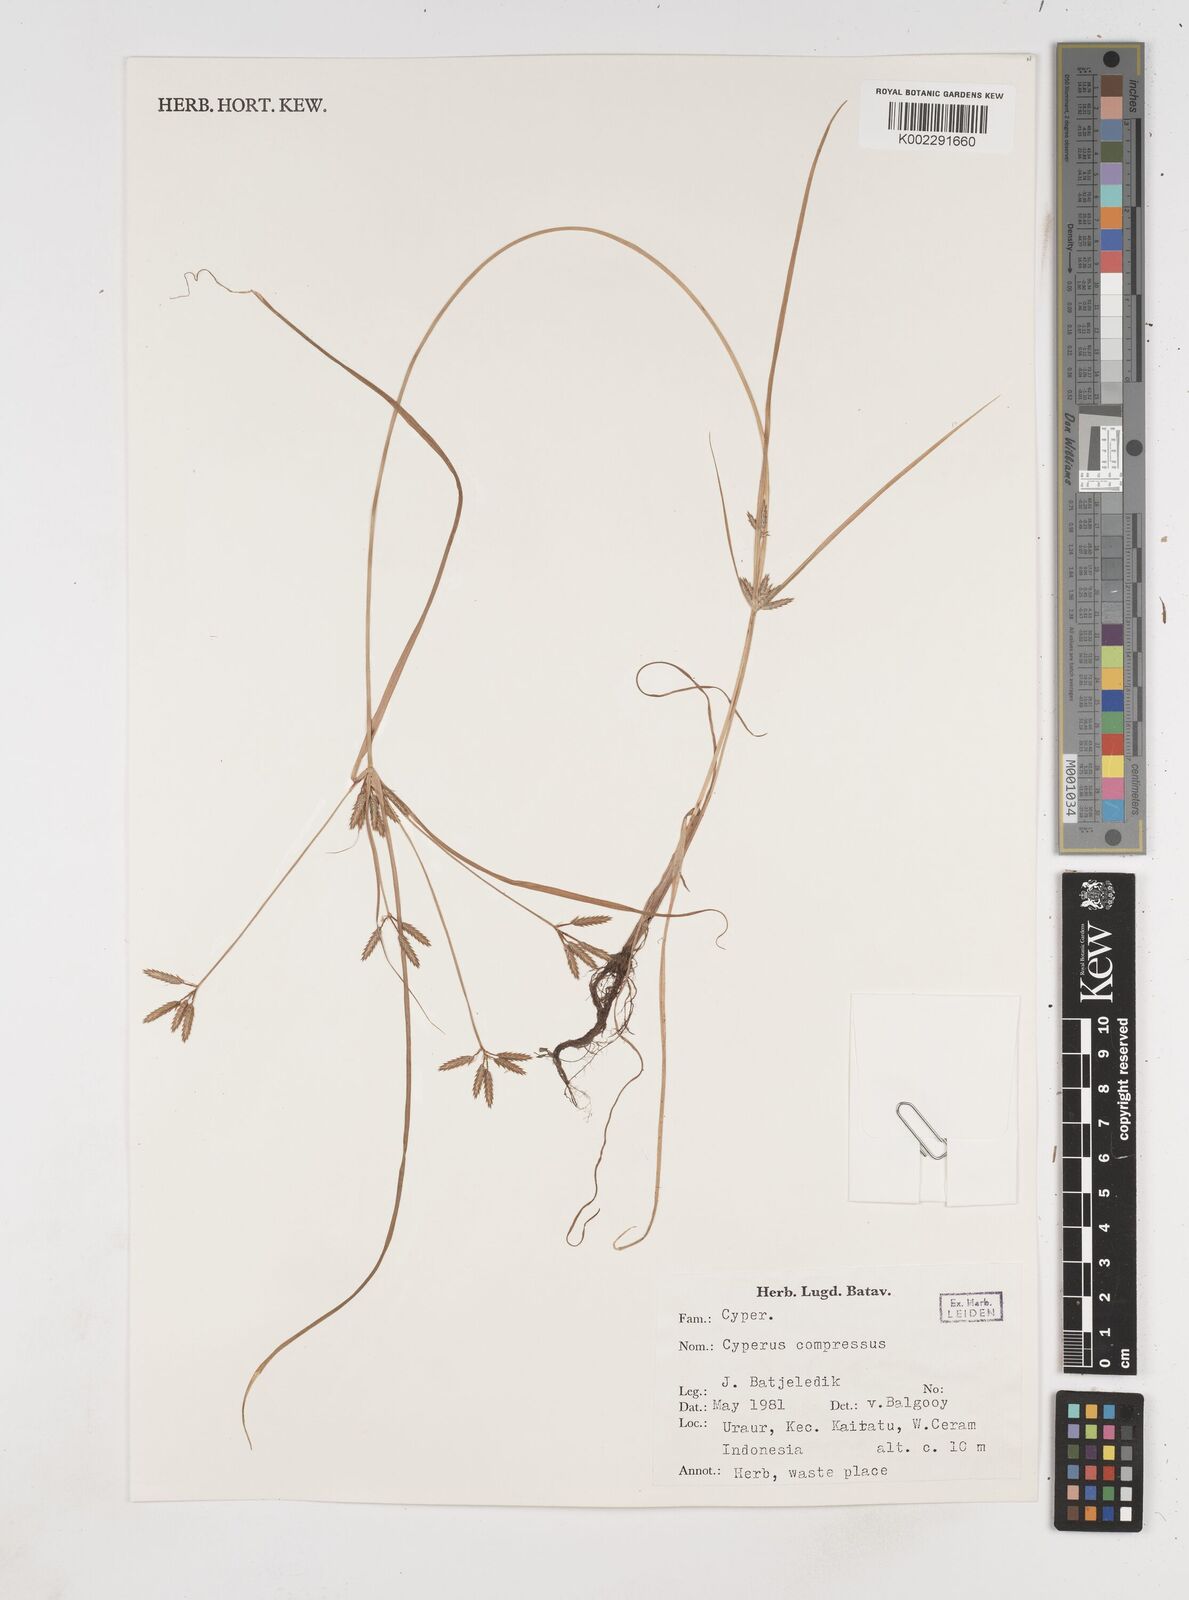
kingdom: Plantae
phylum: Tracheophyta
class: Liliopsida
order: Poales
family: Cyperaceae
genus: Cyperus
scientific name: Cyperus compressus
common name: Poorland flatsedge
